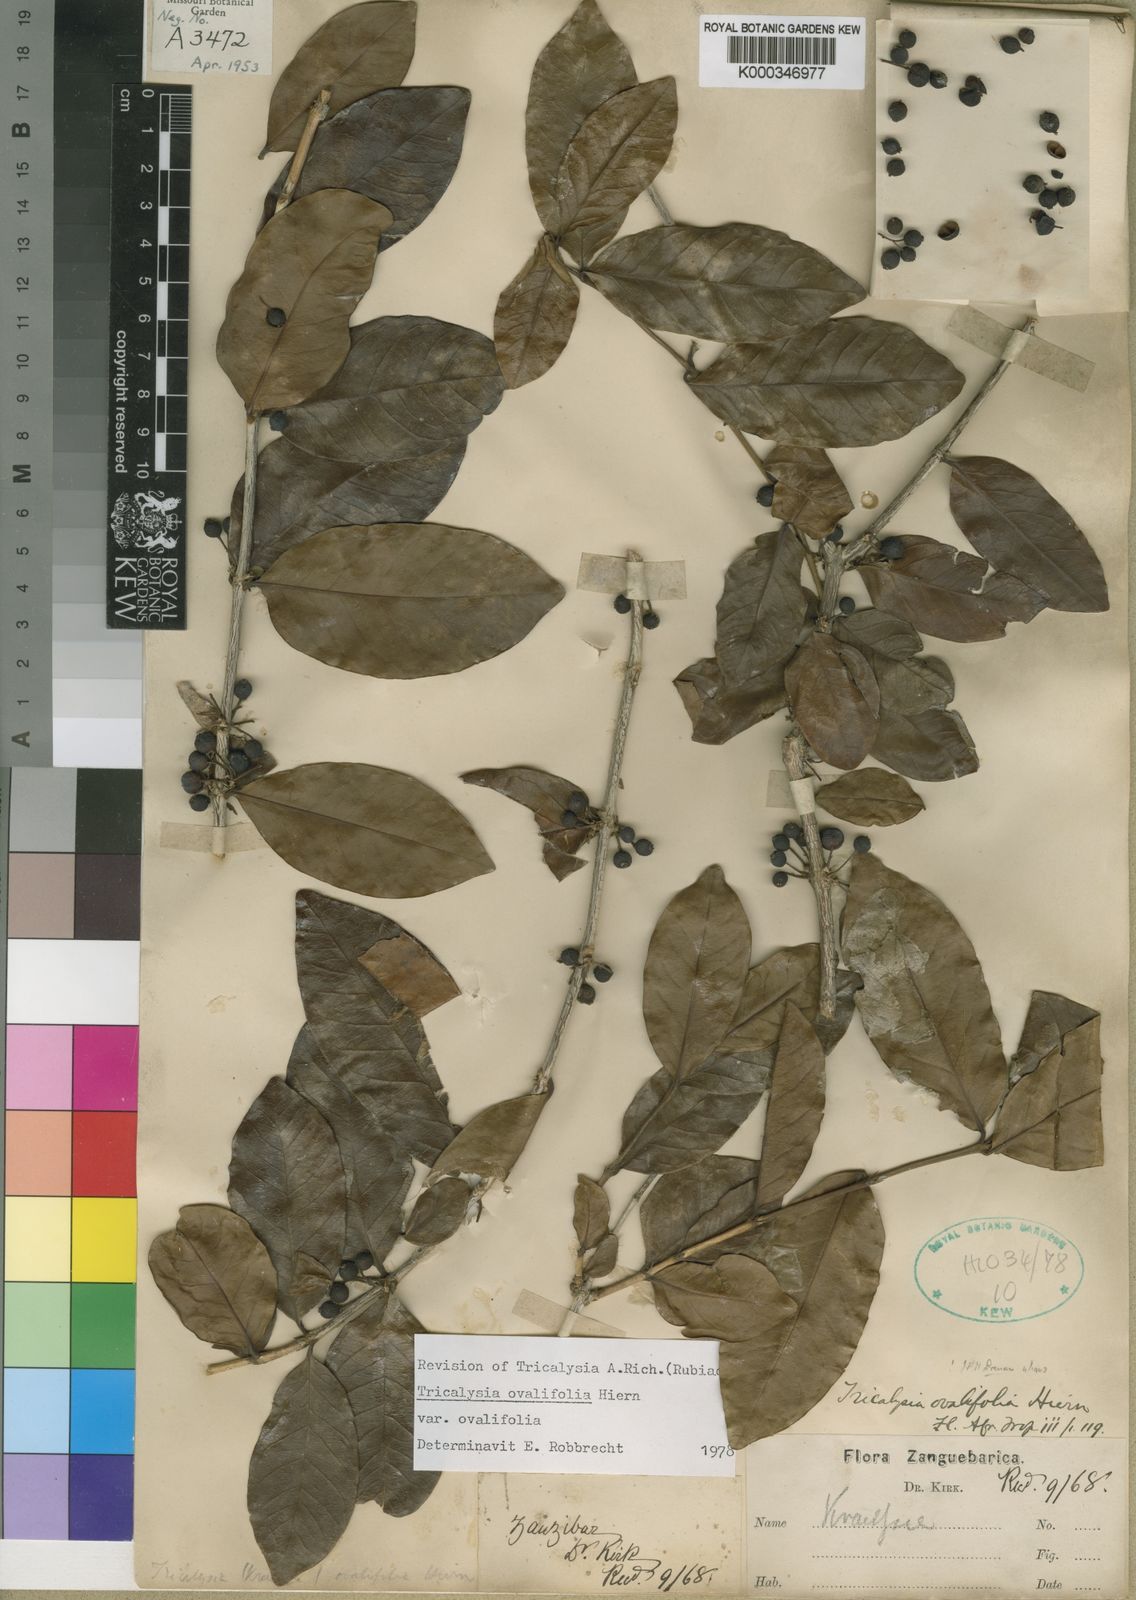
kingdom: Plantae
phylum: Tracheophyta
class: Magnoliopsida
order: Gentianales
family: Rubiaceae
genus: Empogona
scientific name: Empogona ovalifolia
